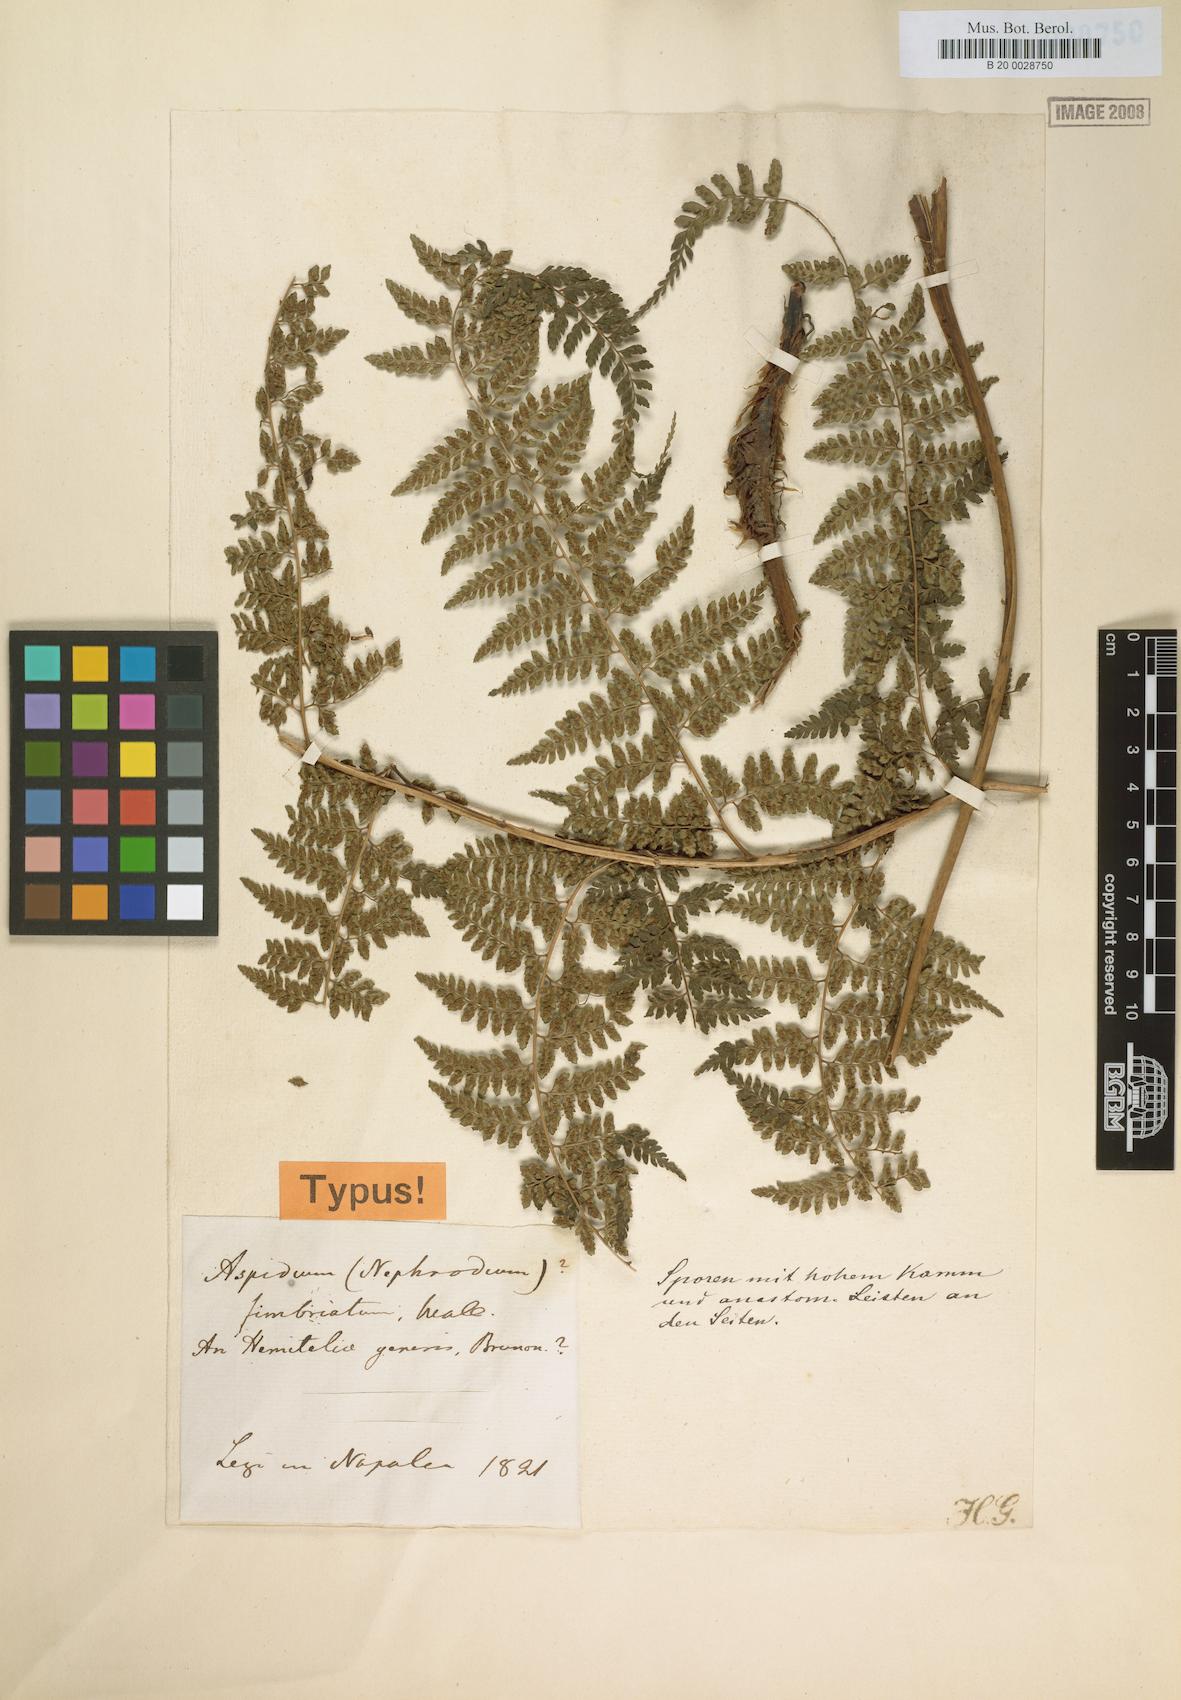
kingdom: Plantae
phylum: Tracheophyta
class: Polypodiopsida
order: Polypodiales
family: Athyriaceae
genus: Athyrium
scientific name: Athyrium fimbriatum
